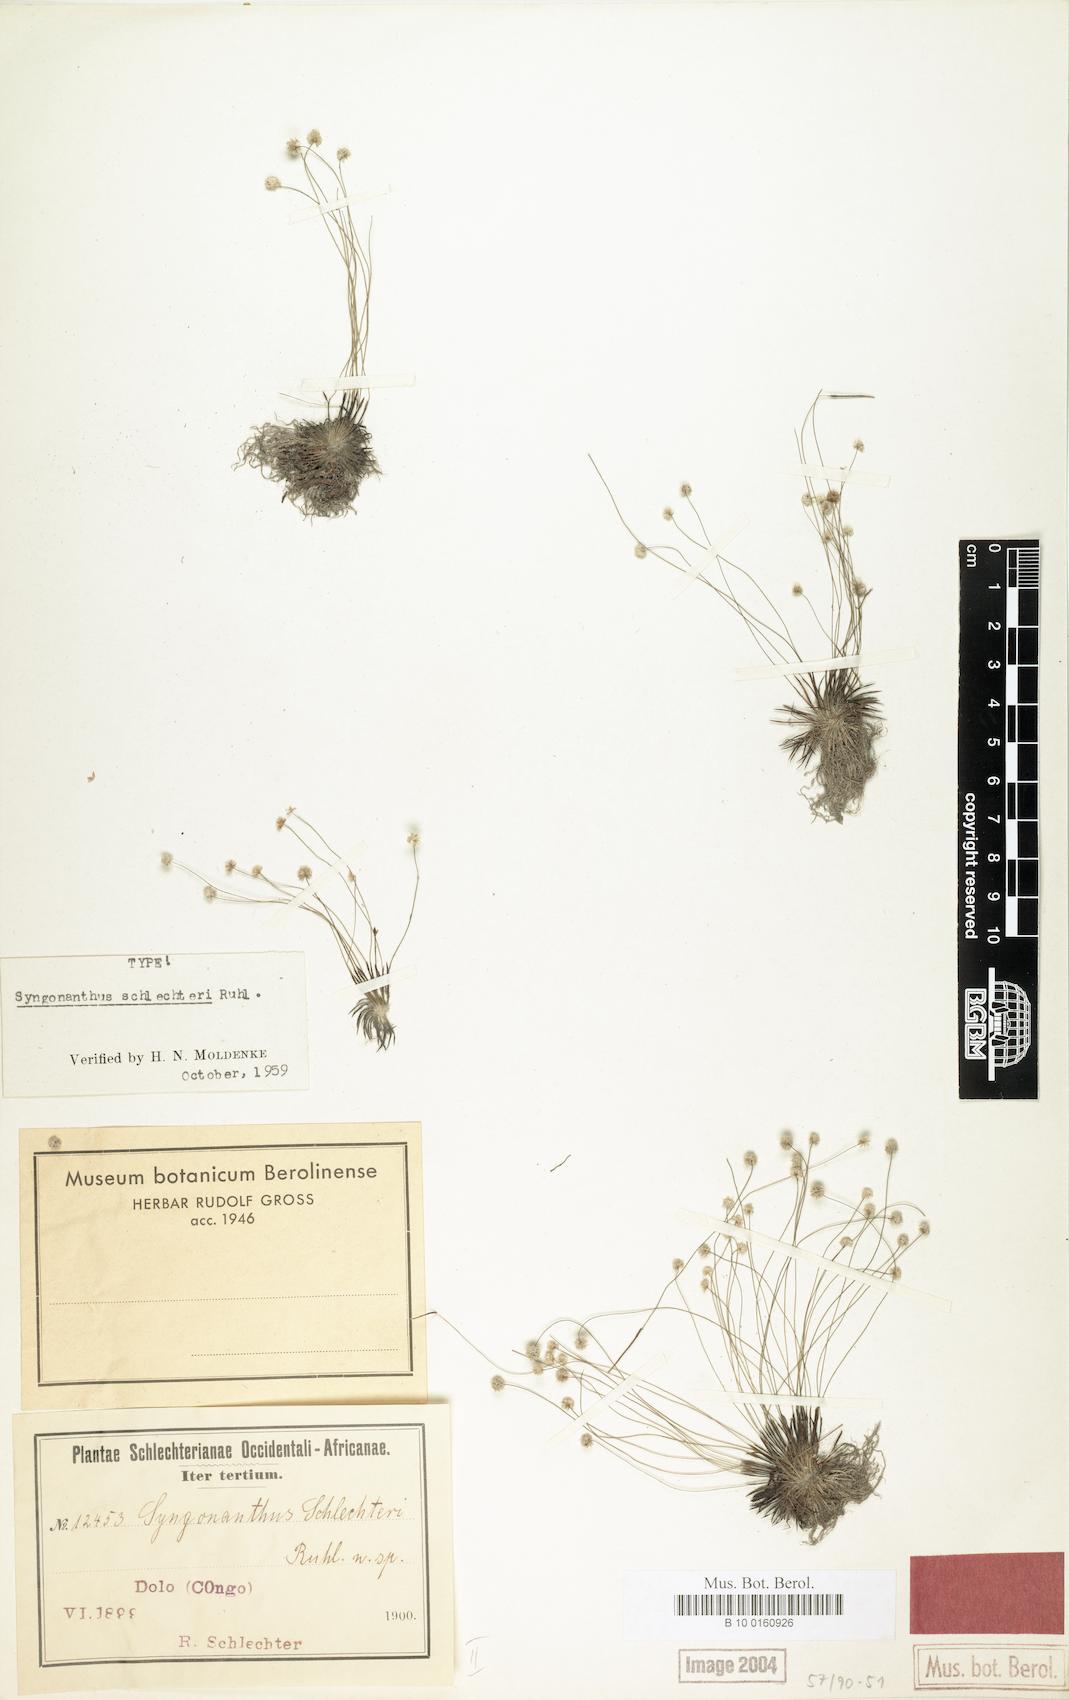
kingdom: Plantae
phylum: Tracheophyta
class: Liliopsida
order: Poales
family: Eriocaulaceae
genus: Syngonanthus
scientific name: Syngonanthus schlechteri
